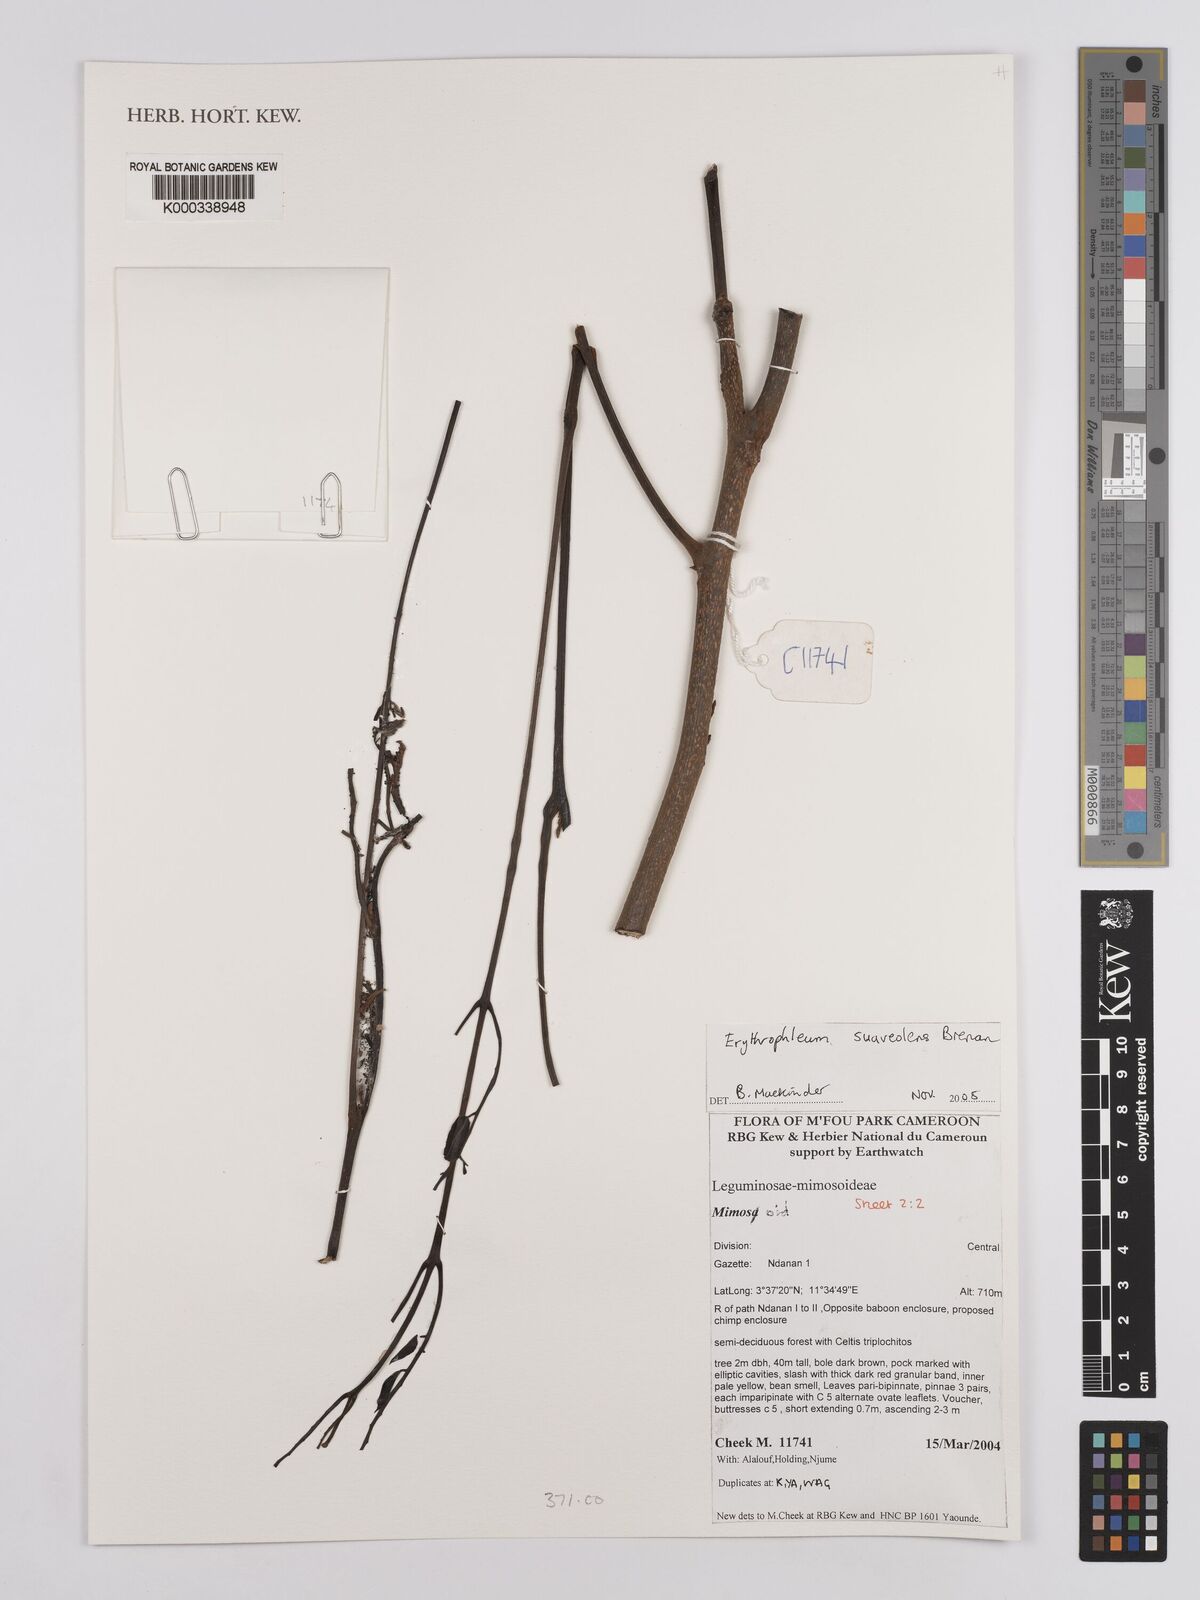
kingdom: Plantae
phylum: Tracheophyta
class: Magnoliopsida
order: Fabales
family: Fabaceae
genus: Erythrophleum
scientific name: Erythrophleum suaveolens
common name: Ordeal tree
